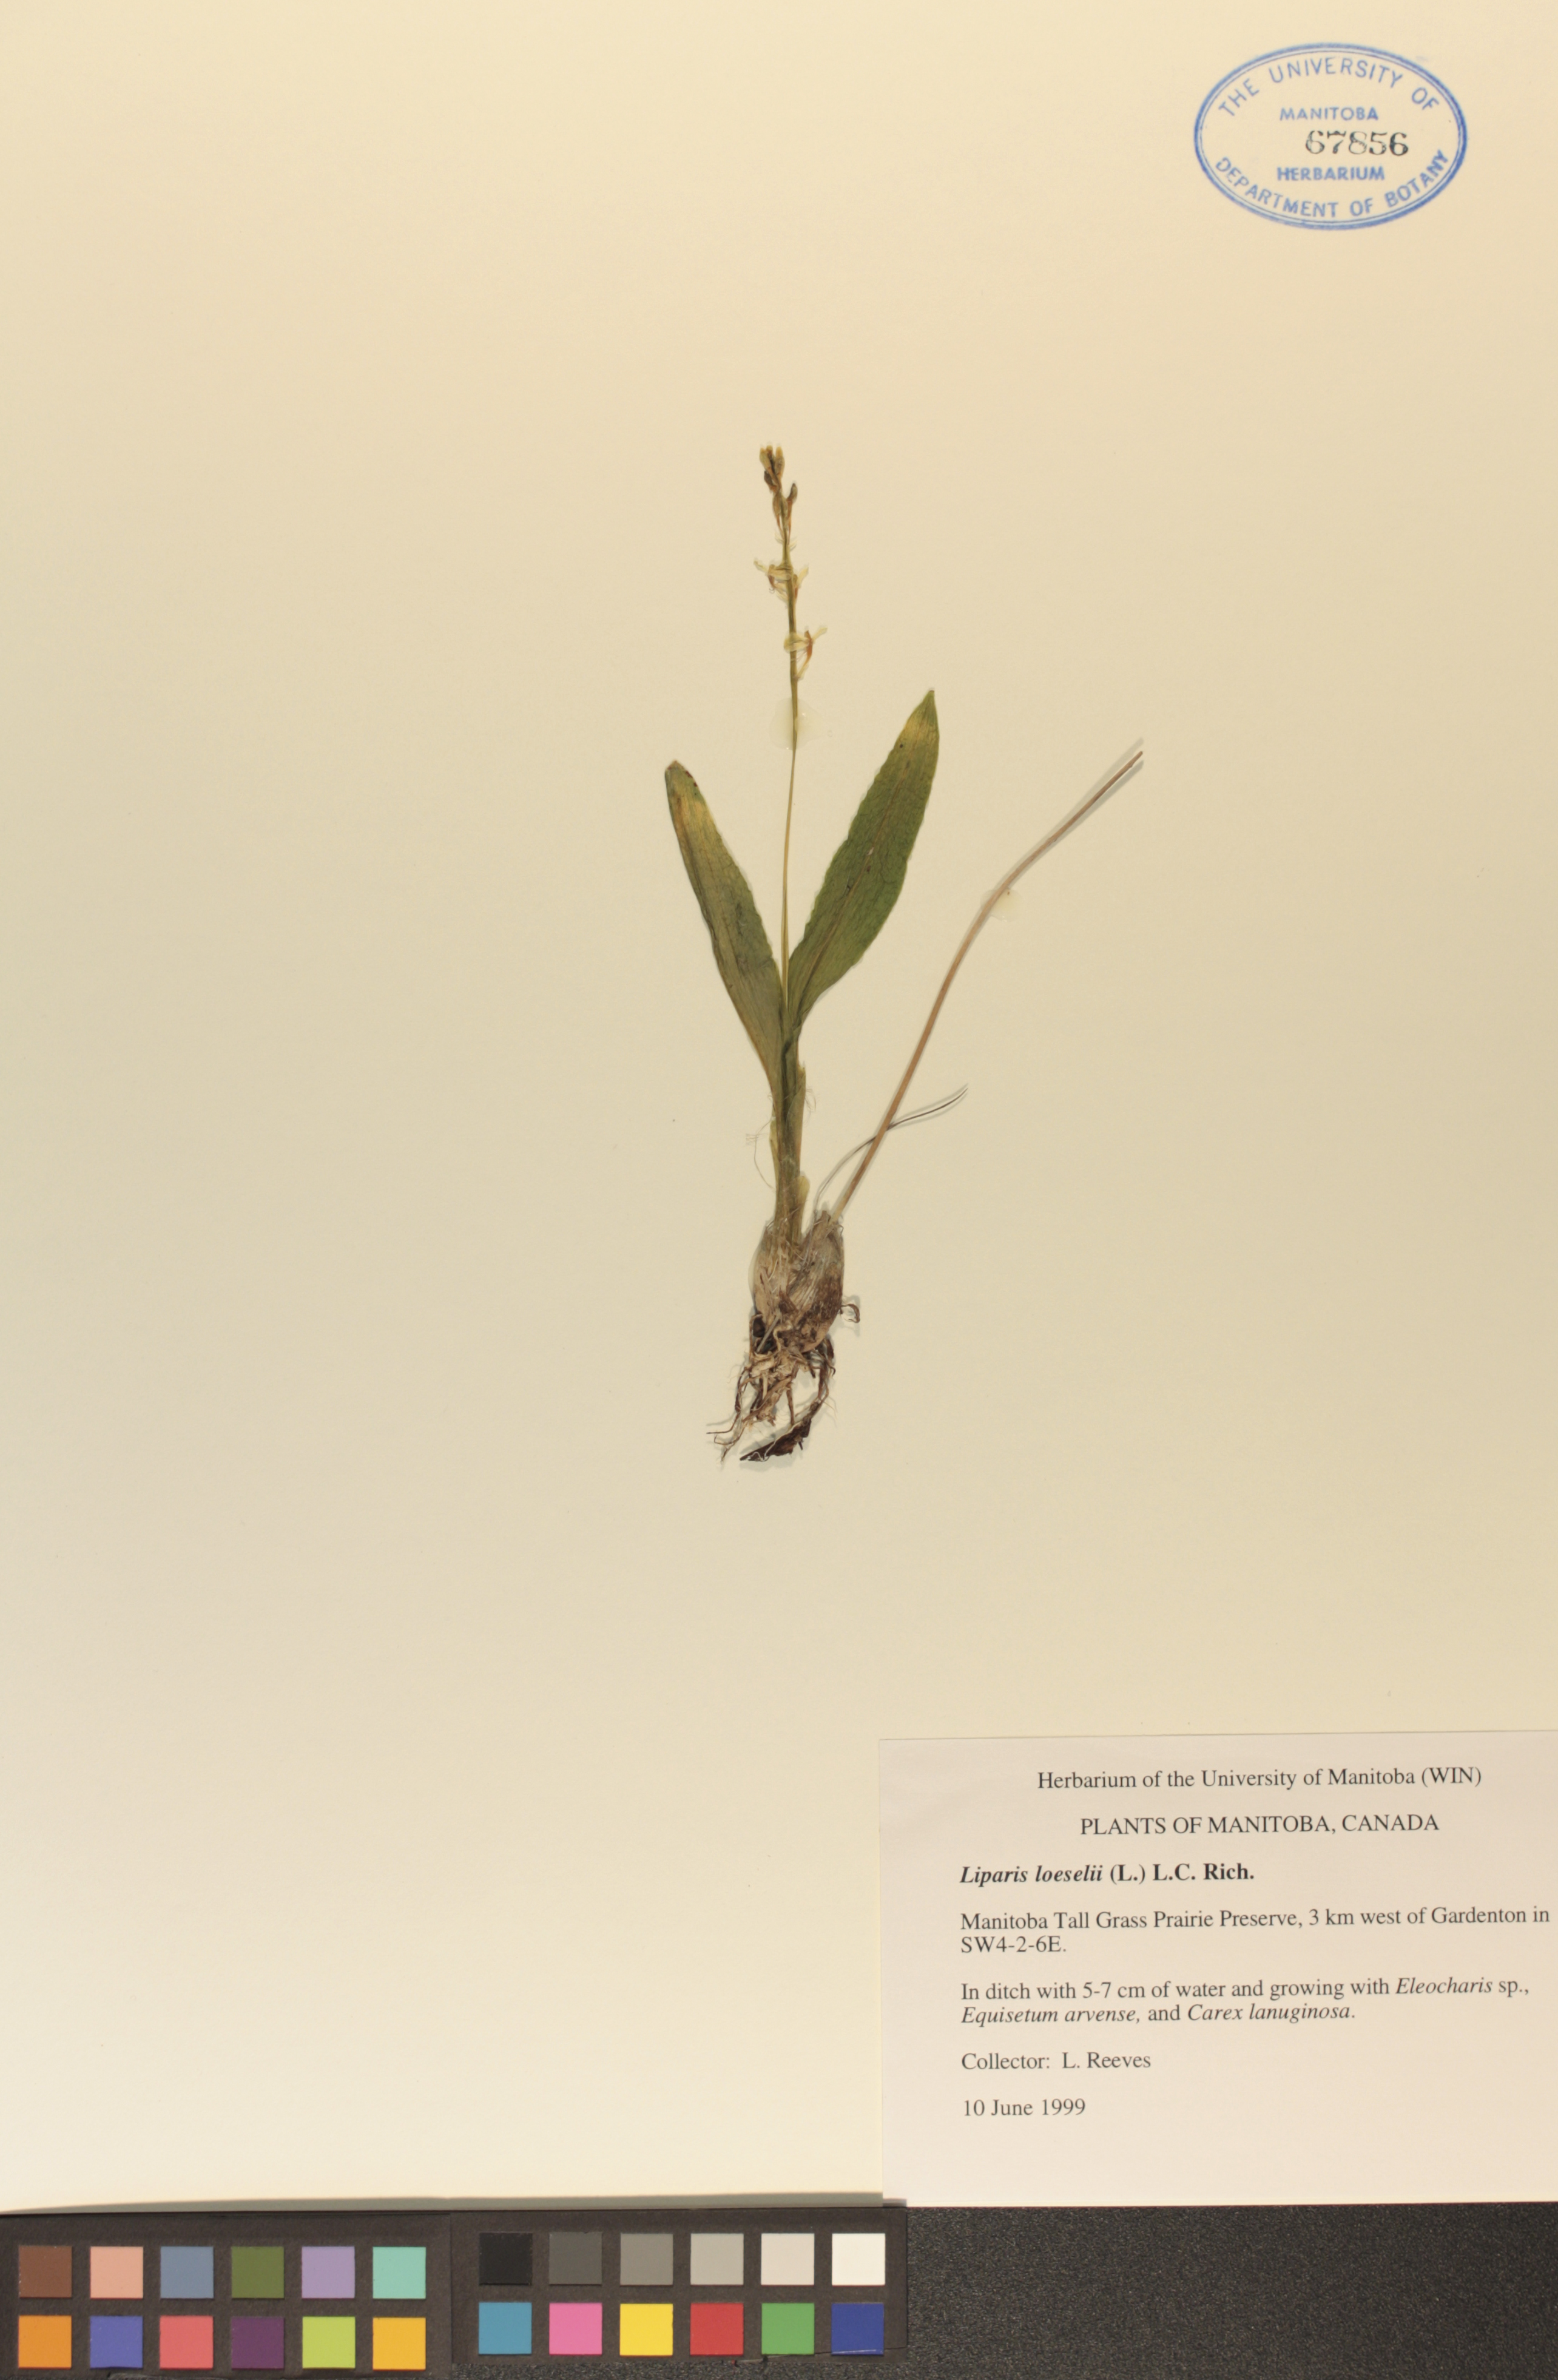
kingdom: Animalia
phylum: Arthropoda
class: Insecta
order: Coleoptera
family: Curculionidae
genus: Liparis
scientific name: Liparis loeselii
